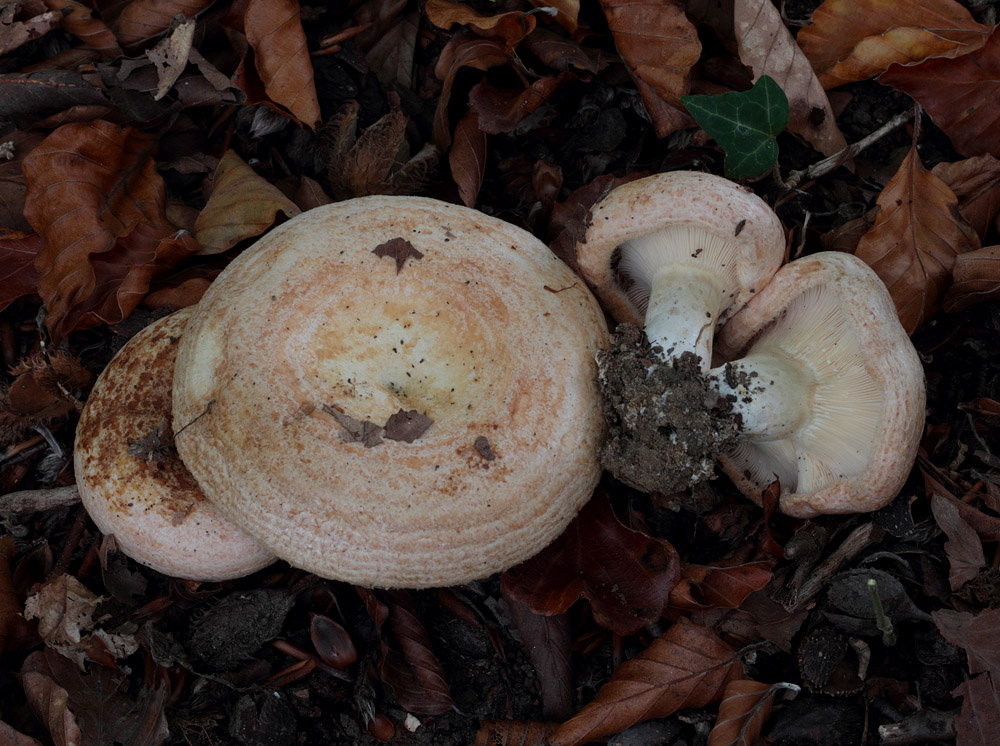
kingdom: Fungi
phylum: Basidiomycota
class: Agaricomycetes
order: Russulales
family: Russulaceae
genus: Lactarius
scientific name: Lactarius zonarius
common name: zoneret mælkehat
